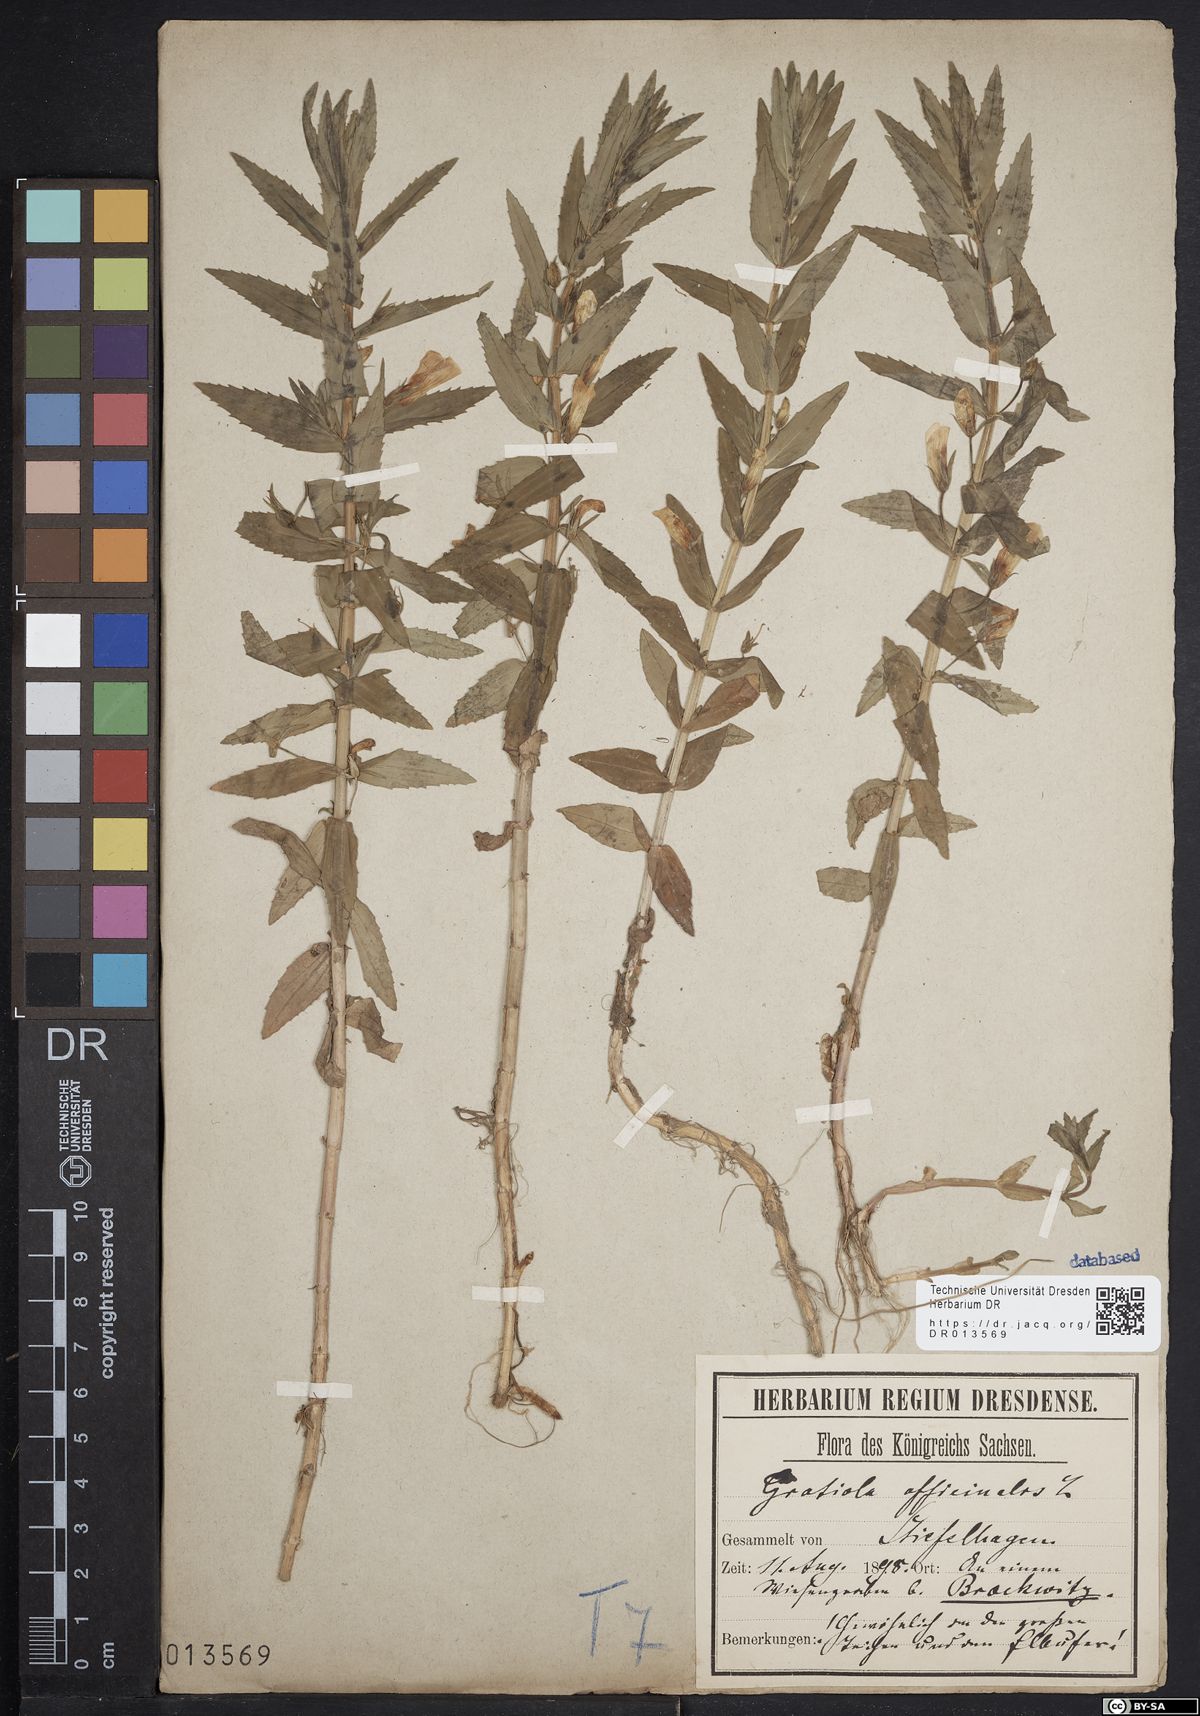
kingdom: Plantae
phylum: Tracheophyta
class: Magnoliopsida
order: Lamiales
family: Plantaginaceae
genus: Gratiola
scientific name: Gratiola officinalis
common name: Gratiola
